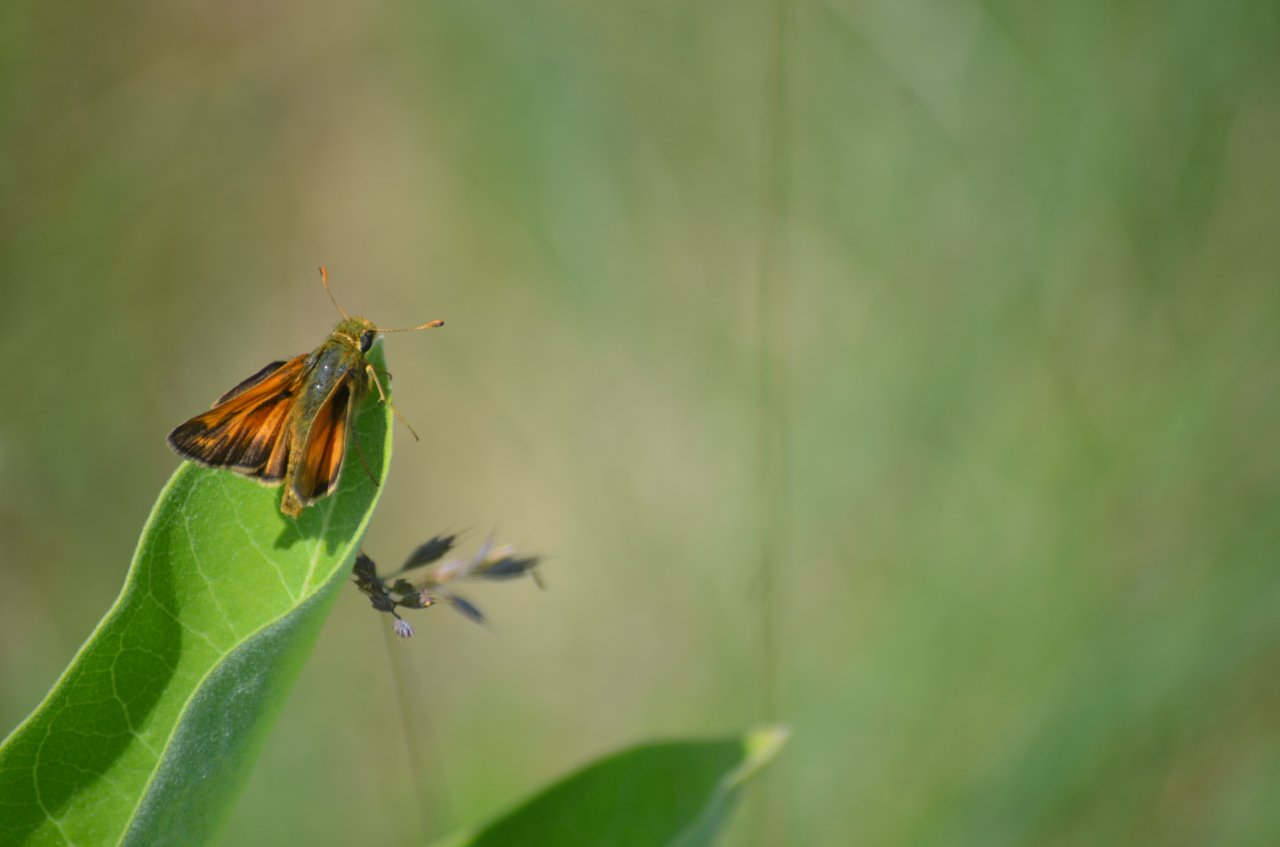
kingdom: Animalia
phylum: Arthropoda
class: Insecta
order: Lepidoptera
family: Hesperiidae
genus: Hesperia
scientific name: Hesperia sassacus
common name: Sassacus Skipper
